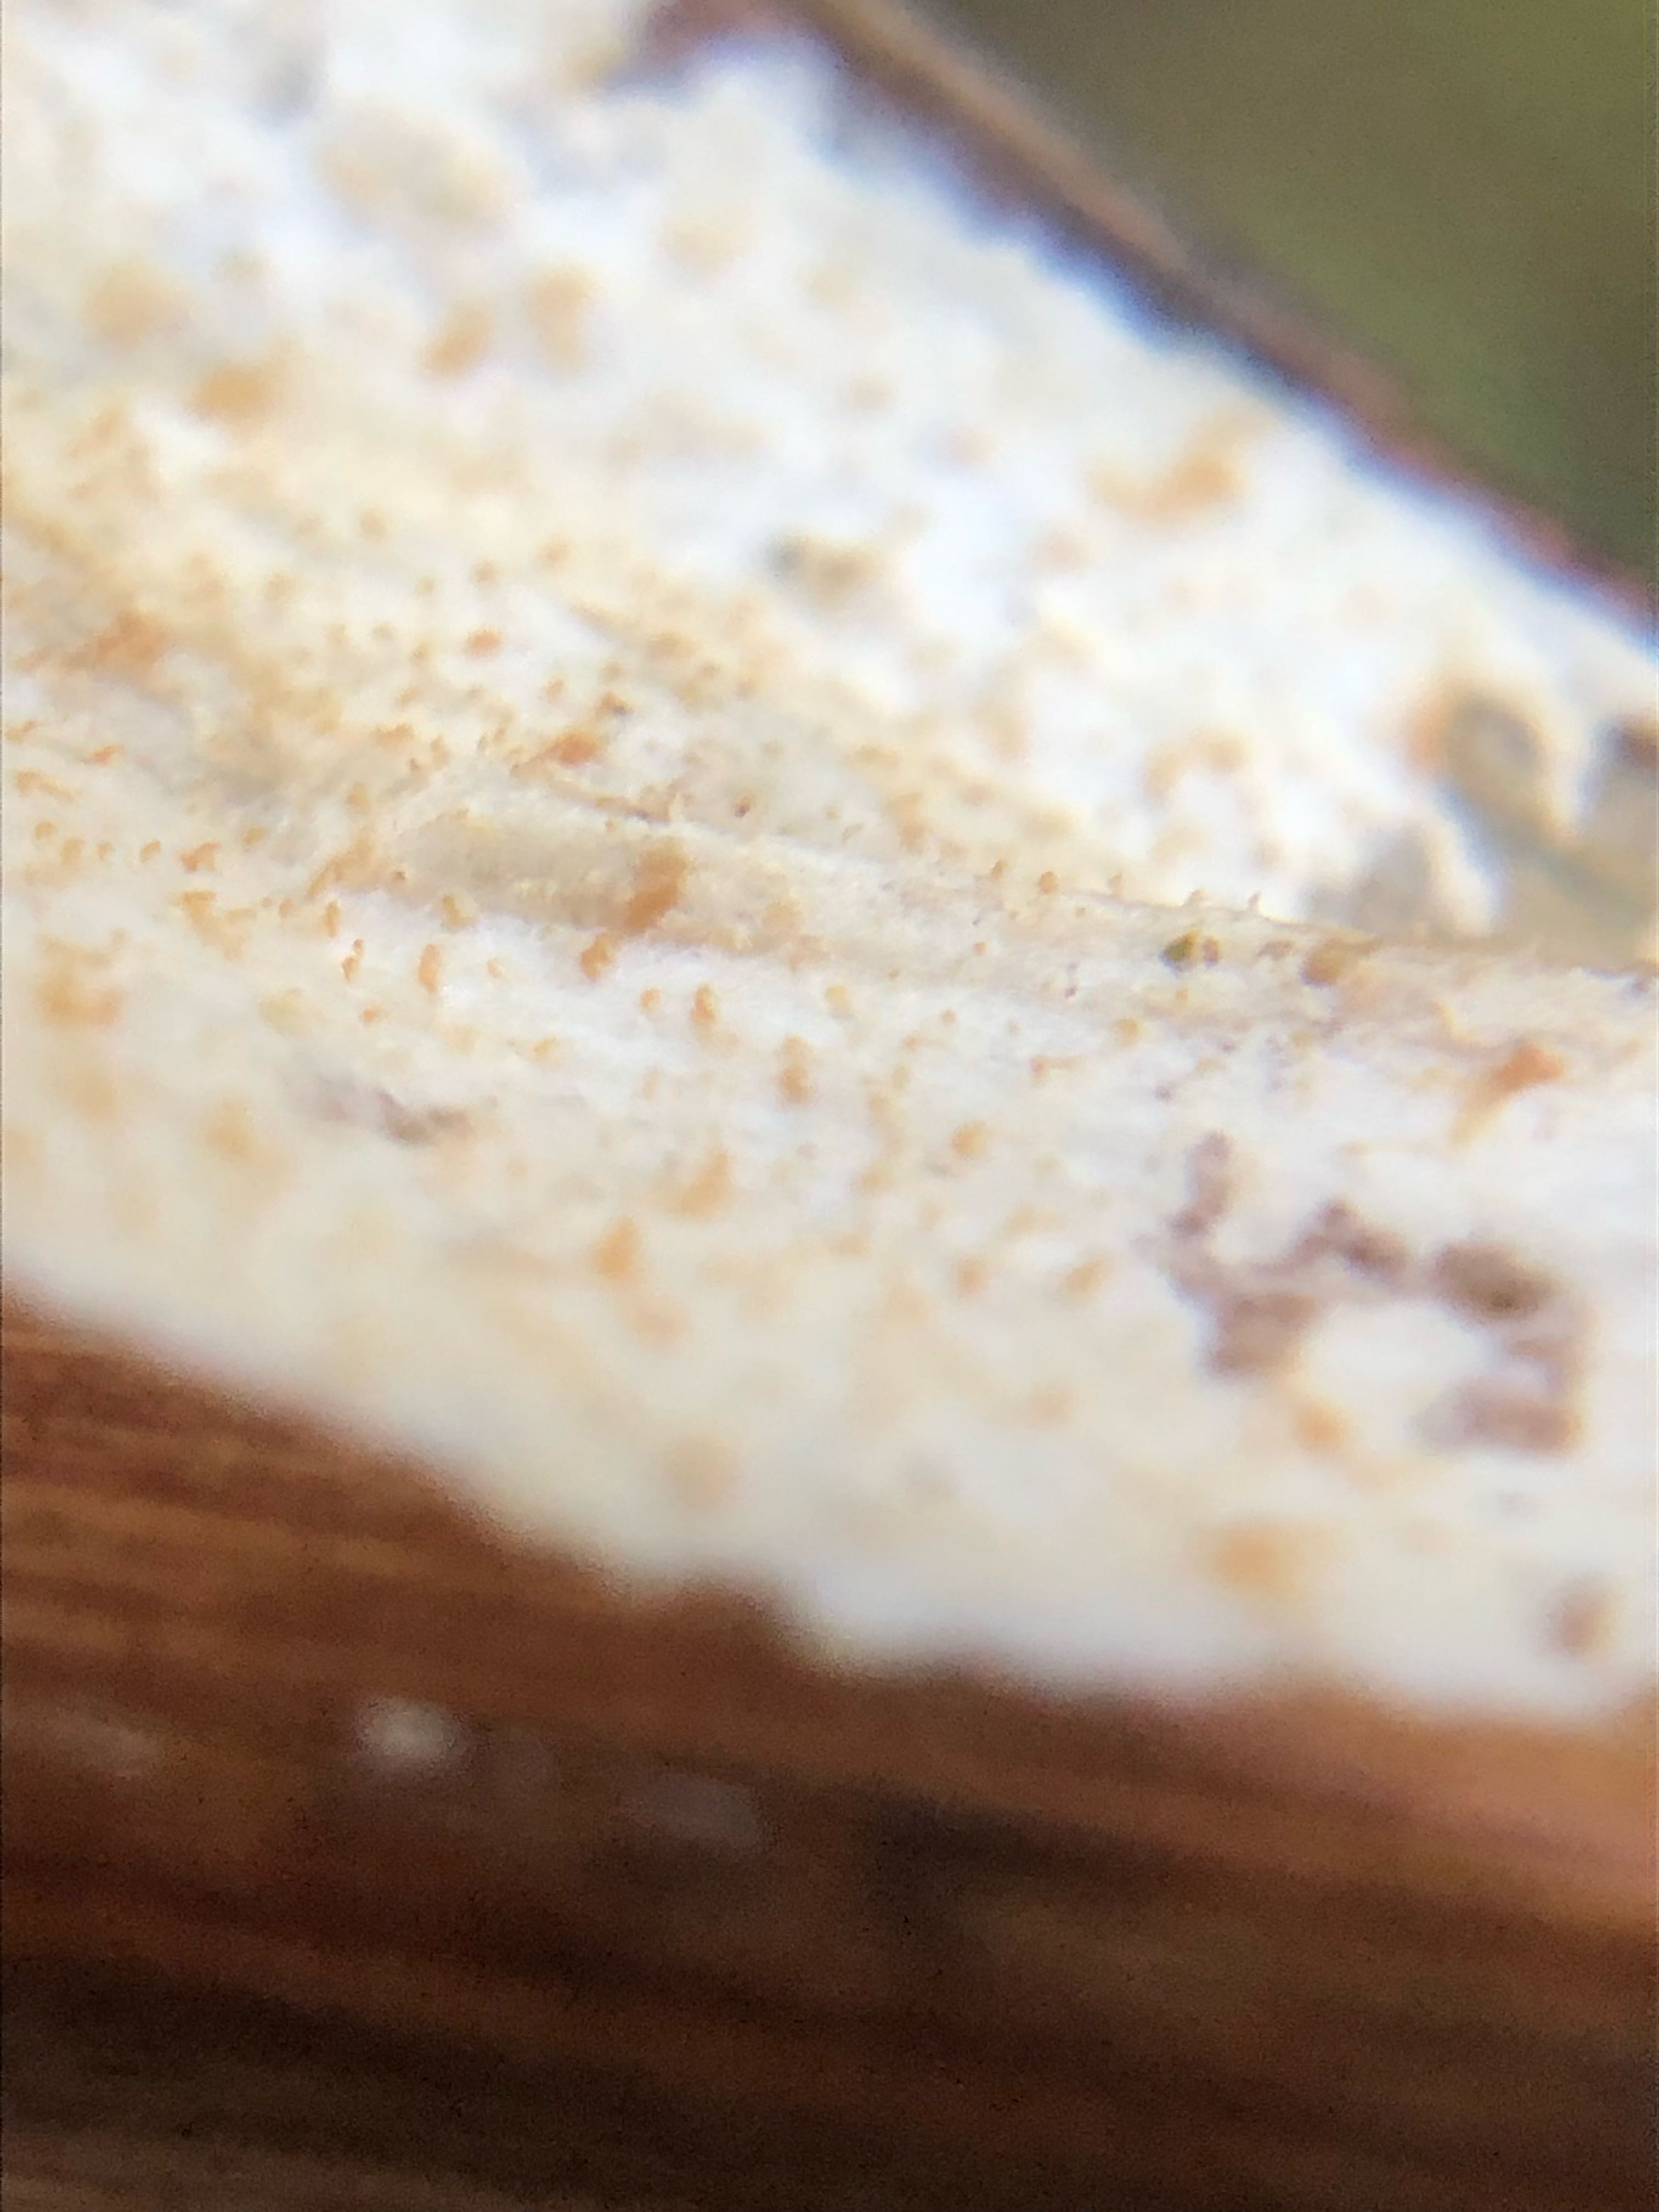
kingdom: Fungi
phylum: Basidiomycota
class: Agaricomycetes
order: Polyporales
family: Polyporaceae
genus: Epithele
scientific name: Epithele typhae
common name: starpig
